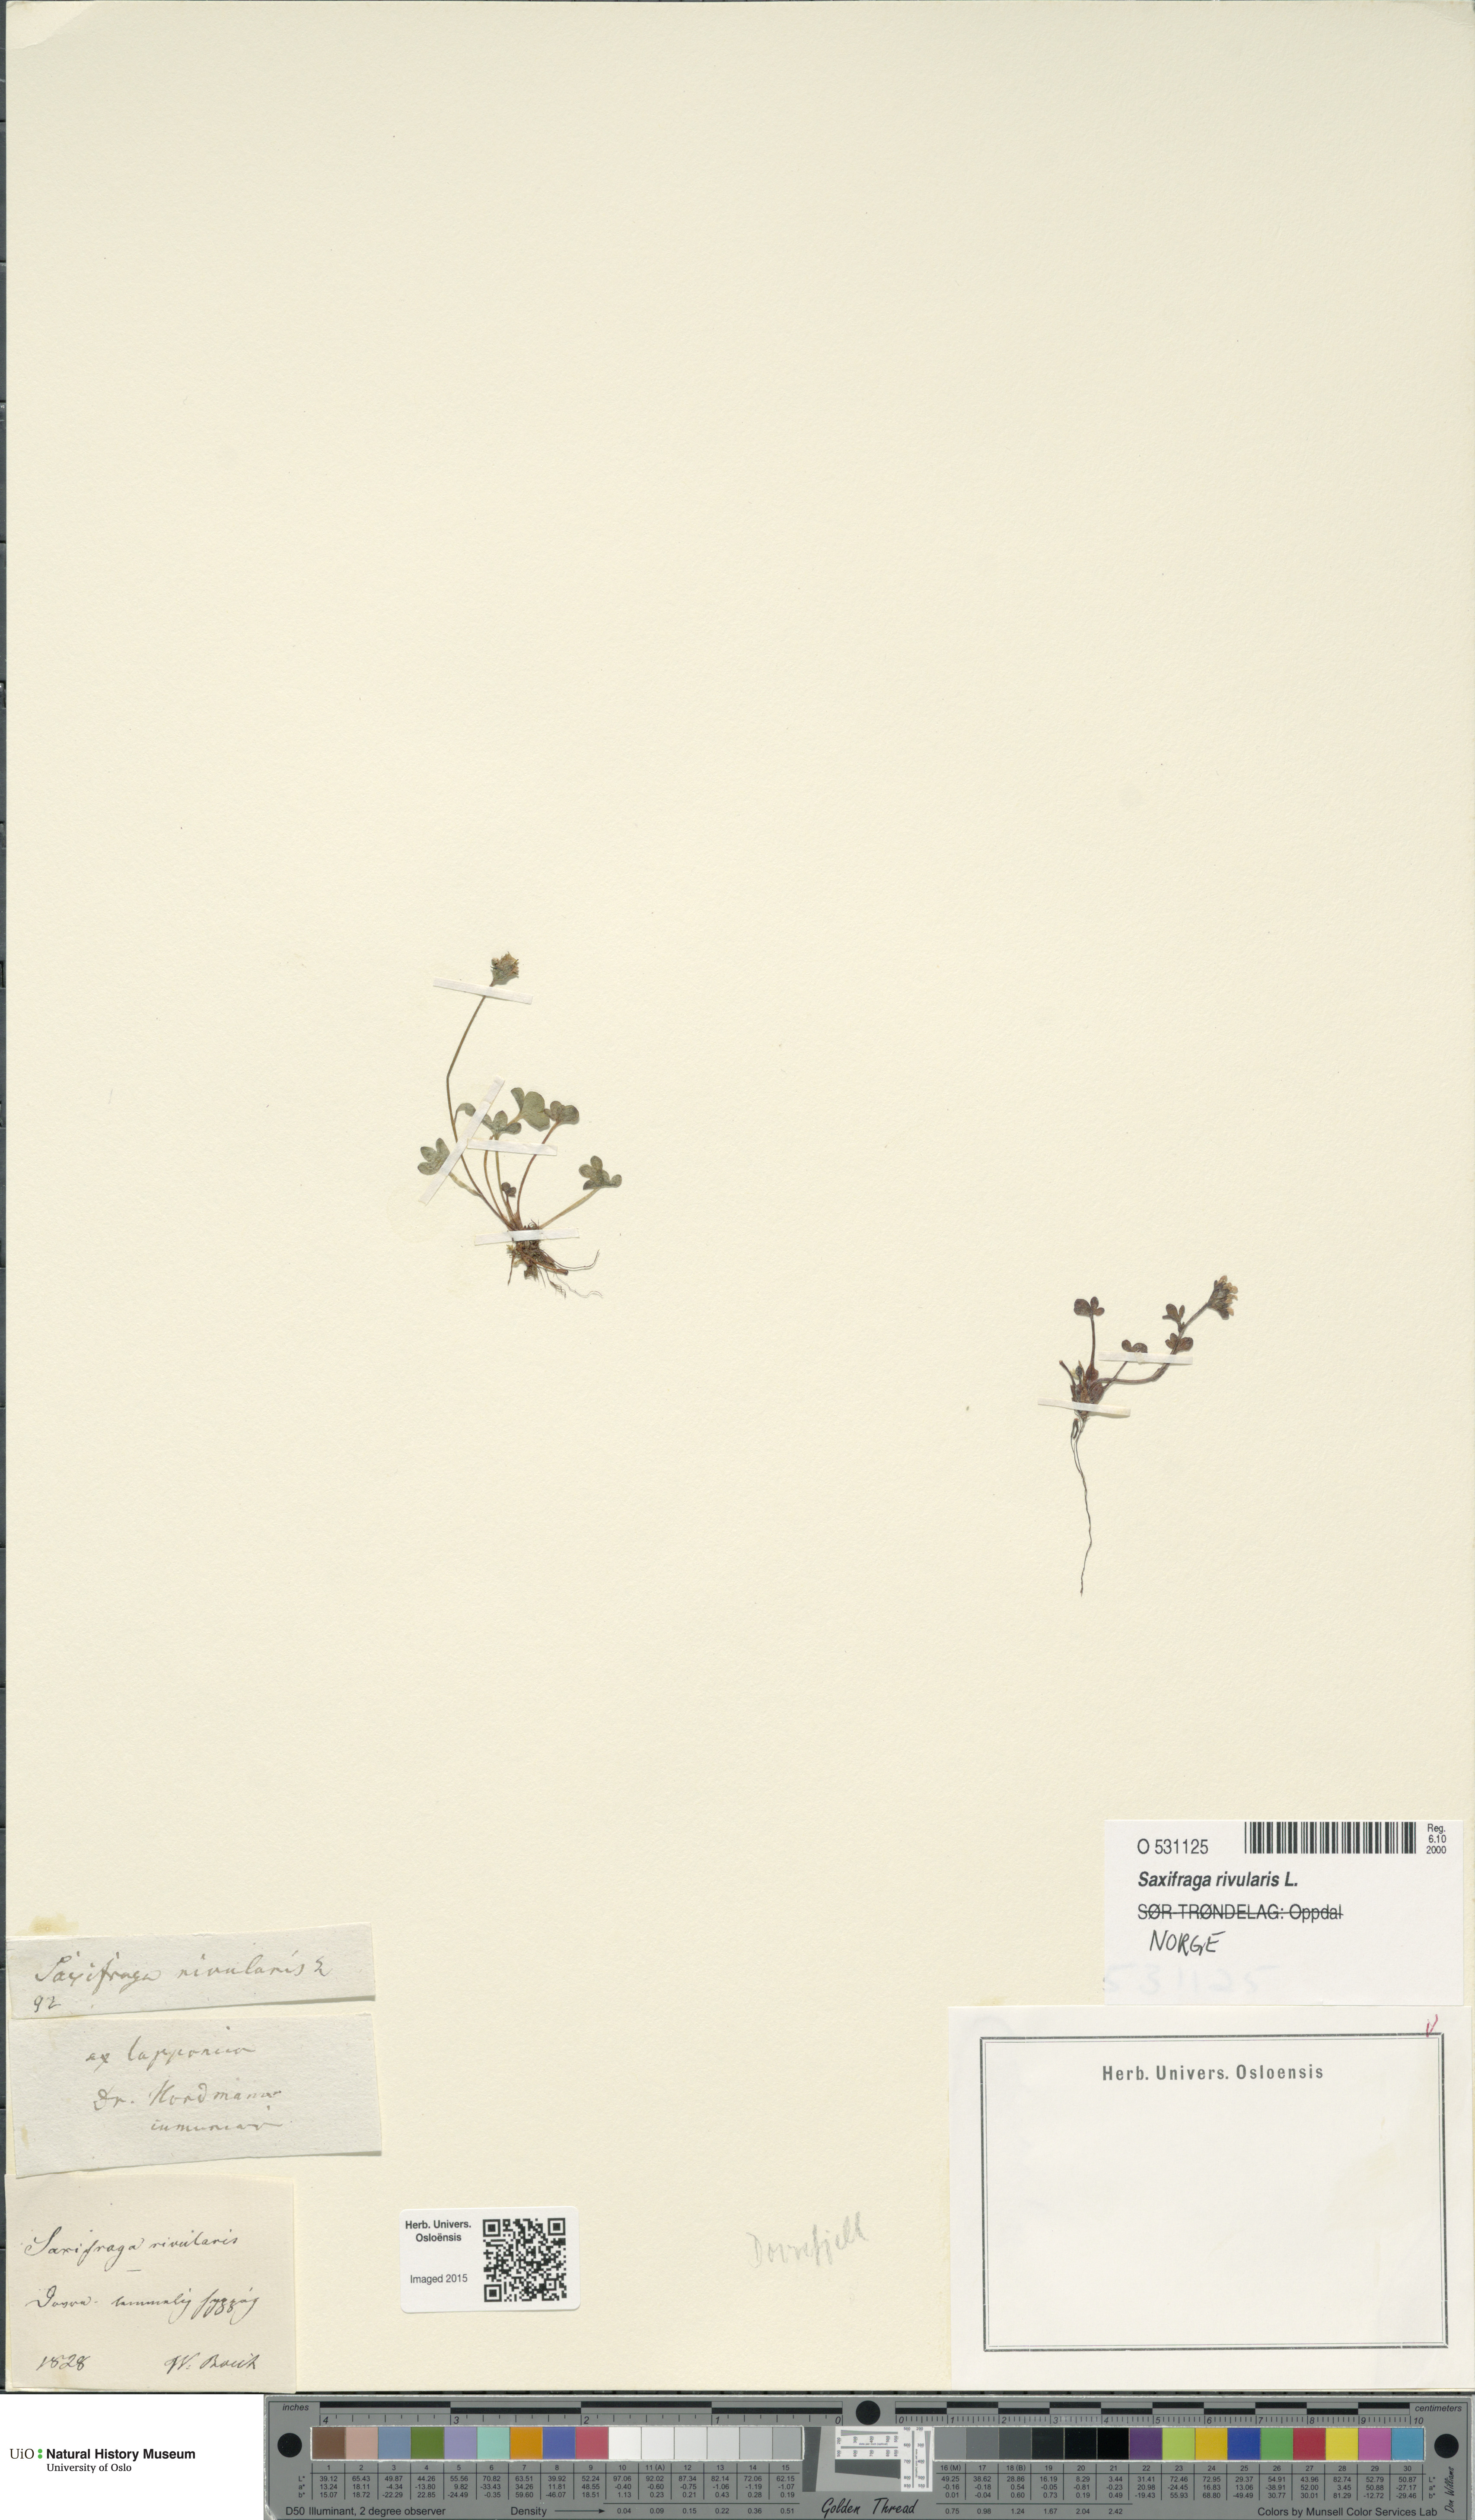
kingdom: Plantae
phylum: Tracheophyta
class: Magnoliopsida
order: Saxifragales
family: Saxifragaceae
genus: Saxifraga
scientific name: Saxifraga rivularis
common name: Highland saxifrage
